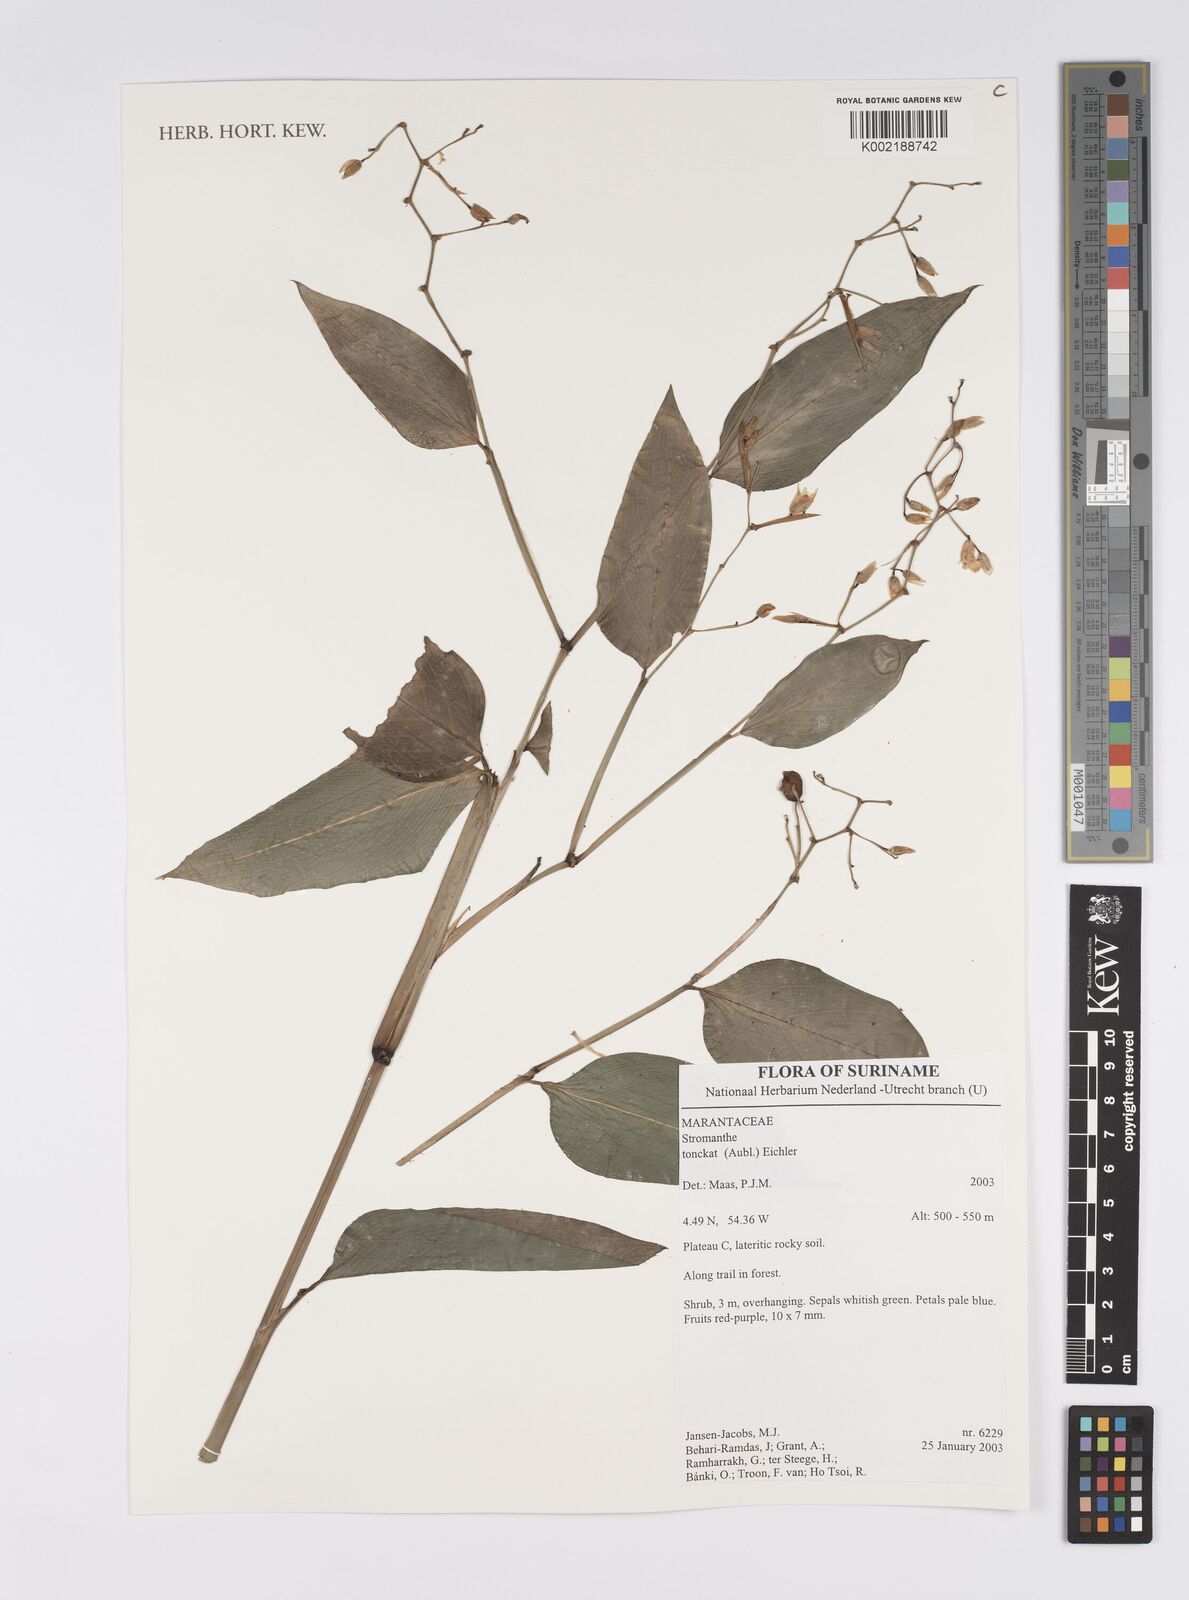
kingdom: Plantae
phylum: Tracheophyta
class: Liliopsida
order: Zingiberales
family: Marantaceae
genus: Stromanthe
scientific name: Stromanthe tonckat
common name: Stromanthe
